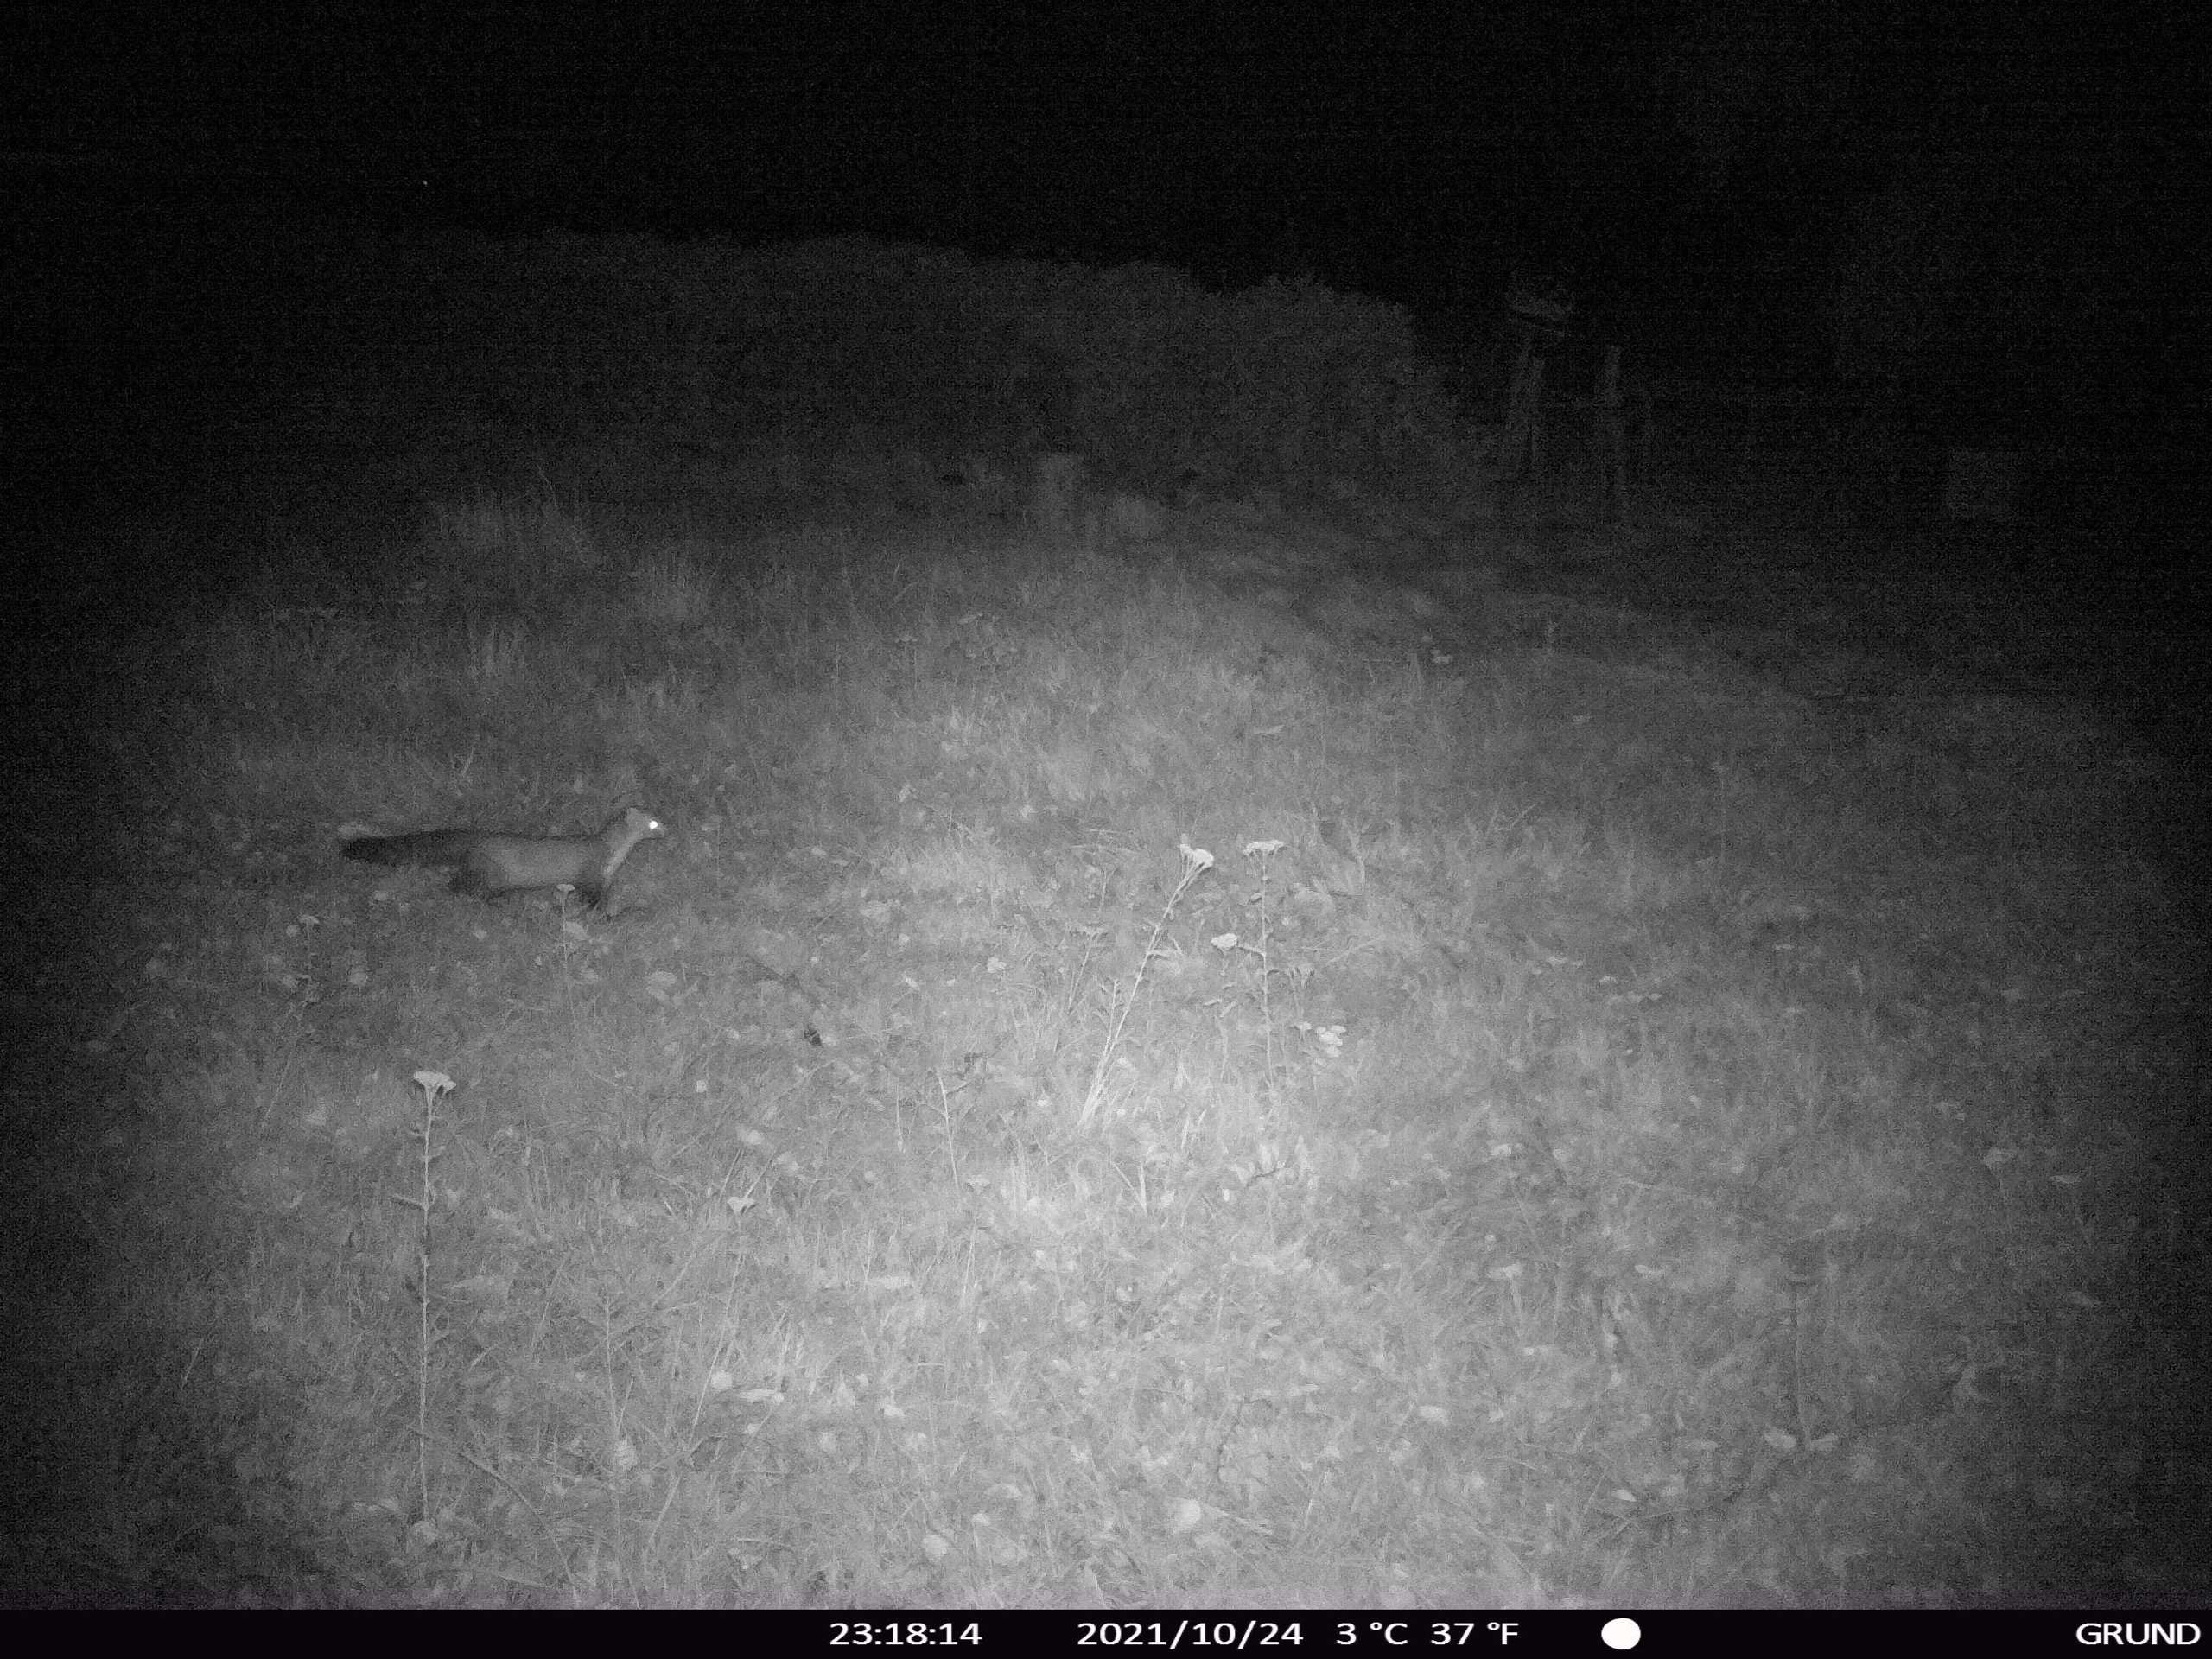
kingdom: Animalia
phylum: Chordata
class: Mammalia
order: Carnivora
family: Mustelidae
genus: Martes
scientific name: Martes foina
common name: Husmår
